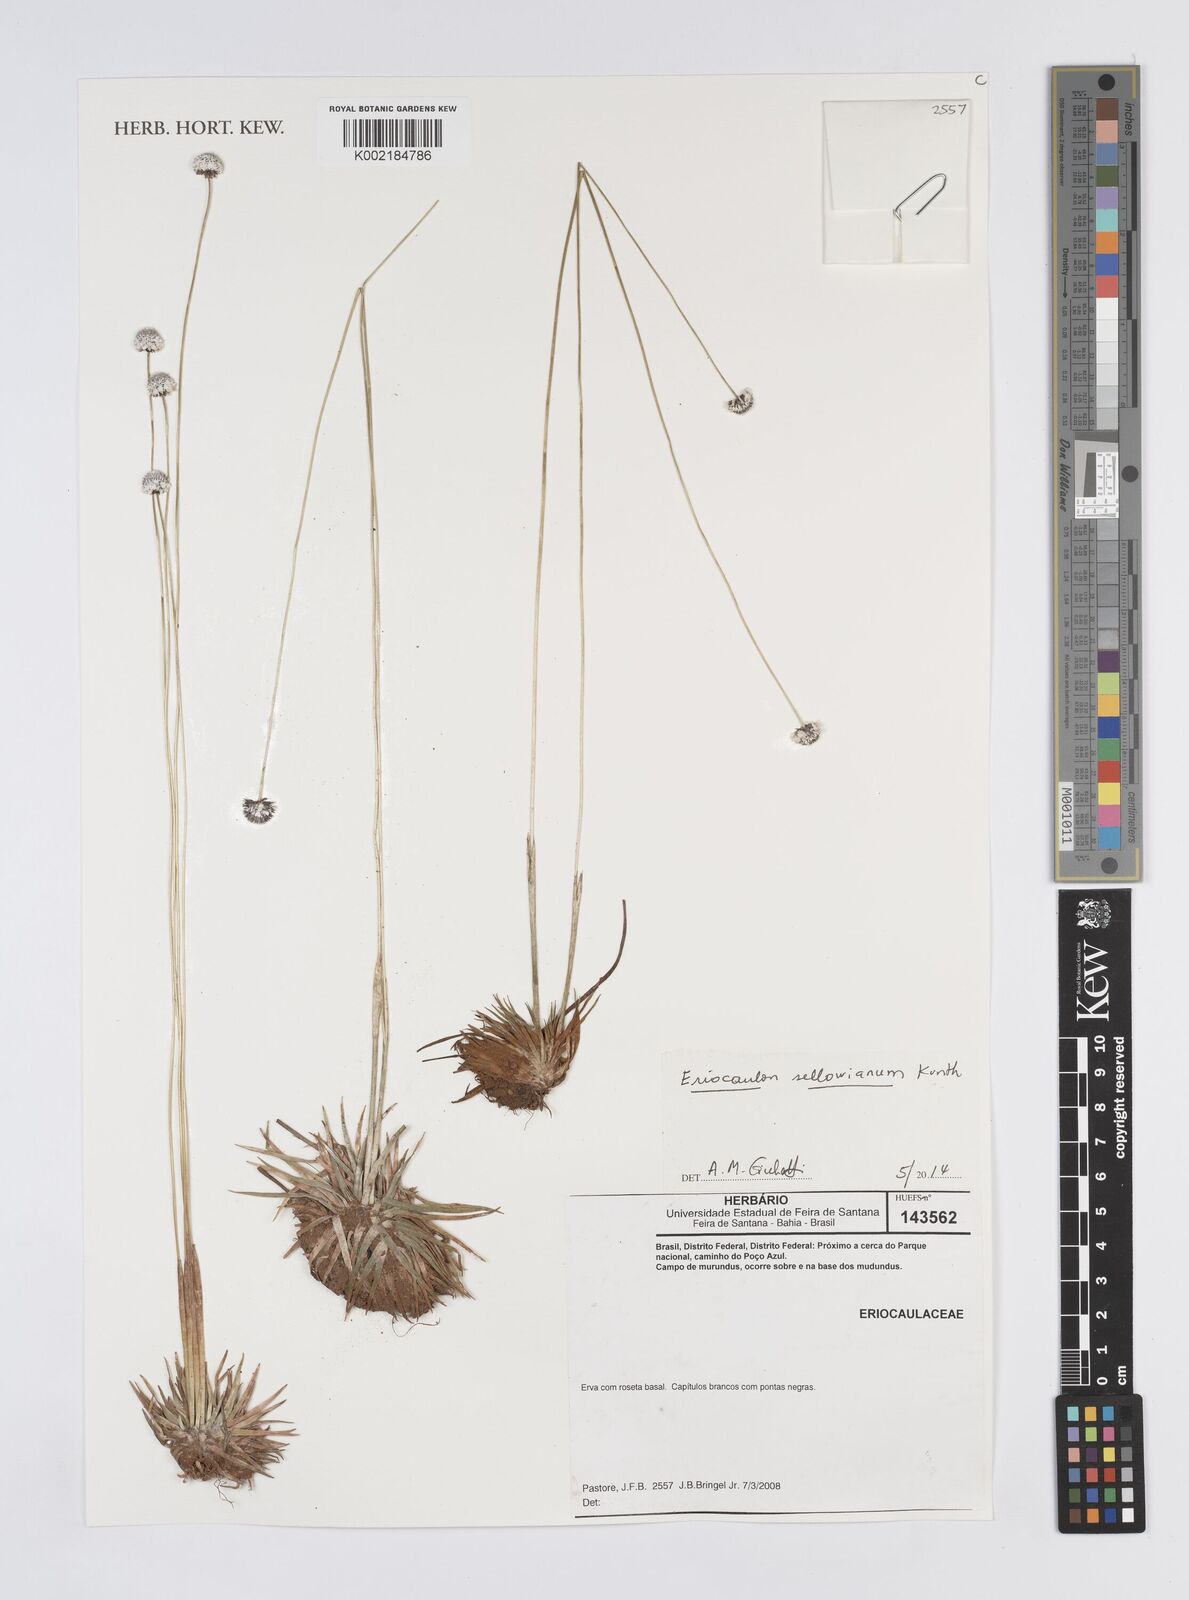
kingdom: Plantae
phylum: Tracheophyta
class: Liliopsida
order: Poales
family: Eriocaulaceae
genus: Eriocaulon
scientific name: Eriocaulon sellowianum
